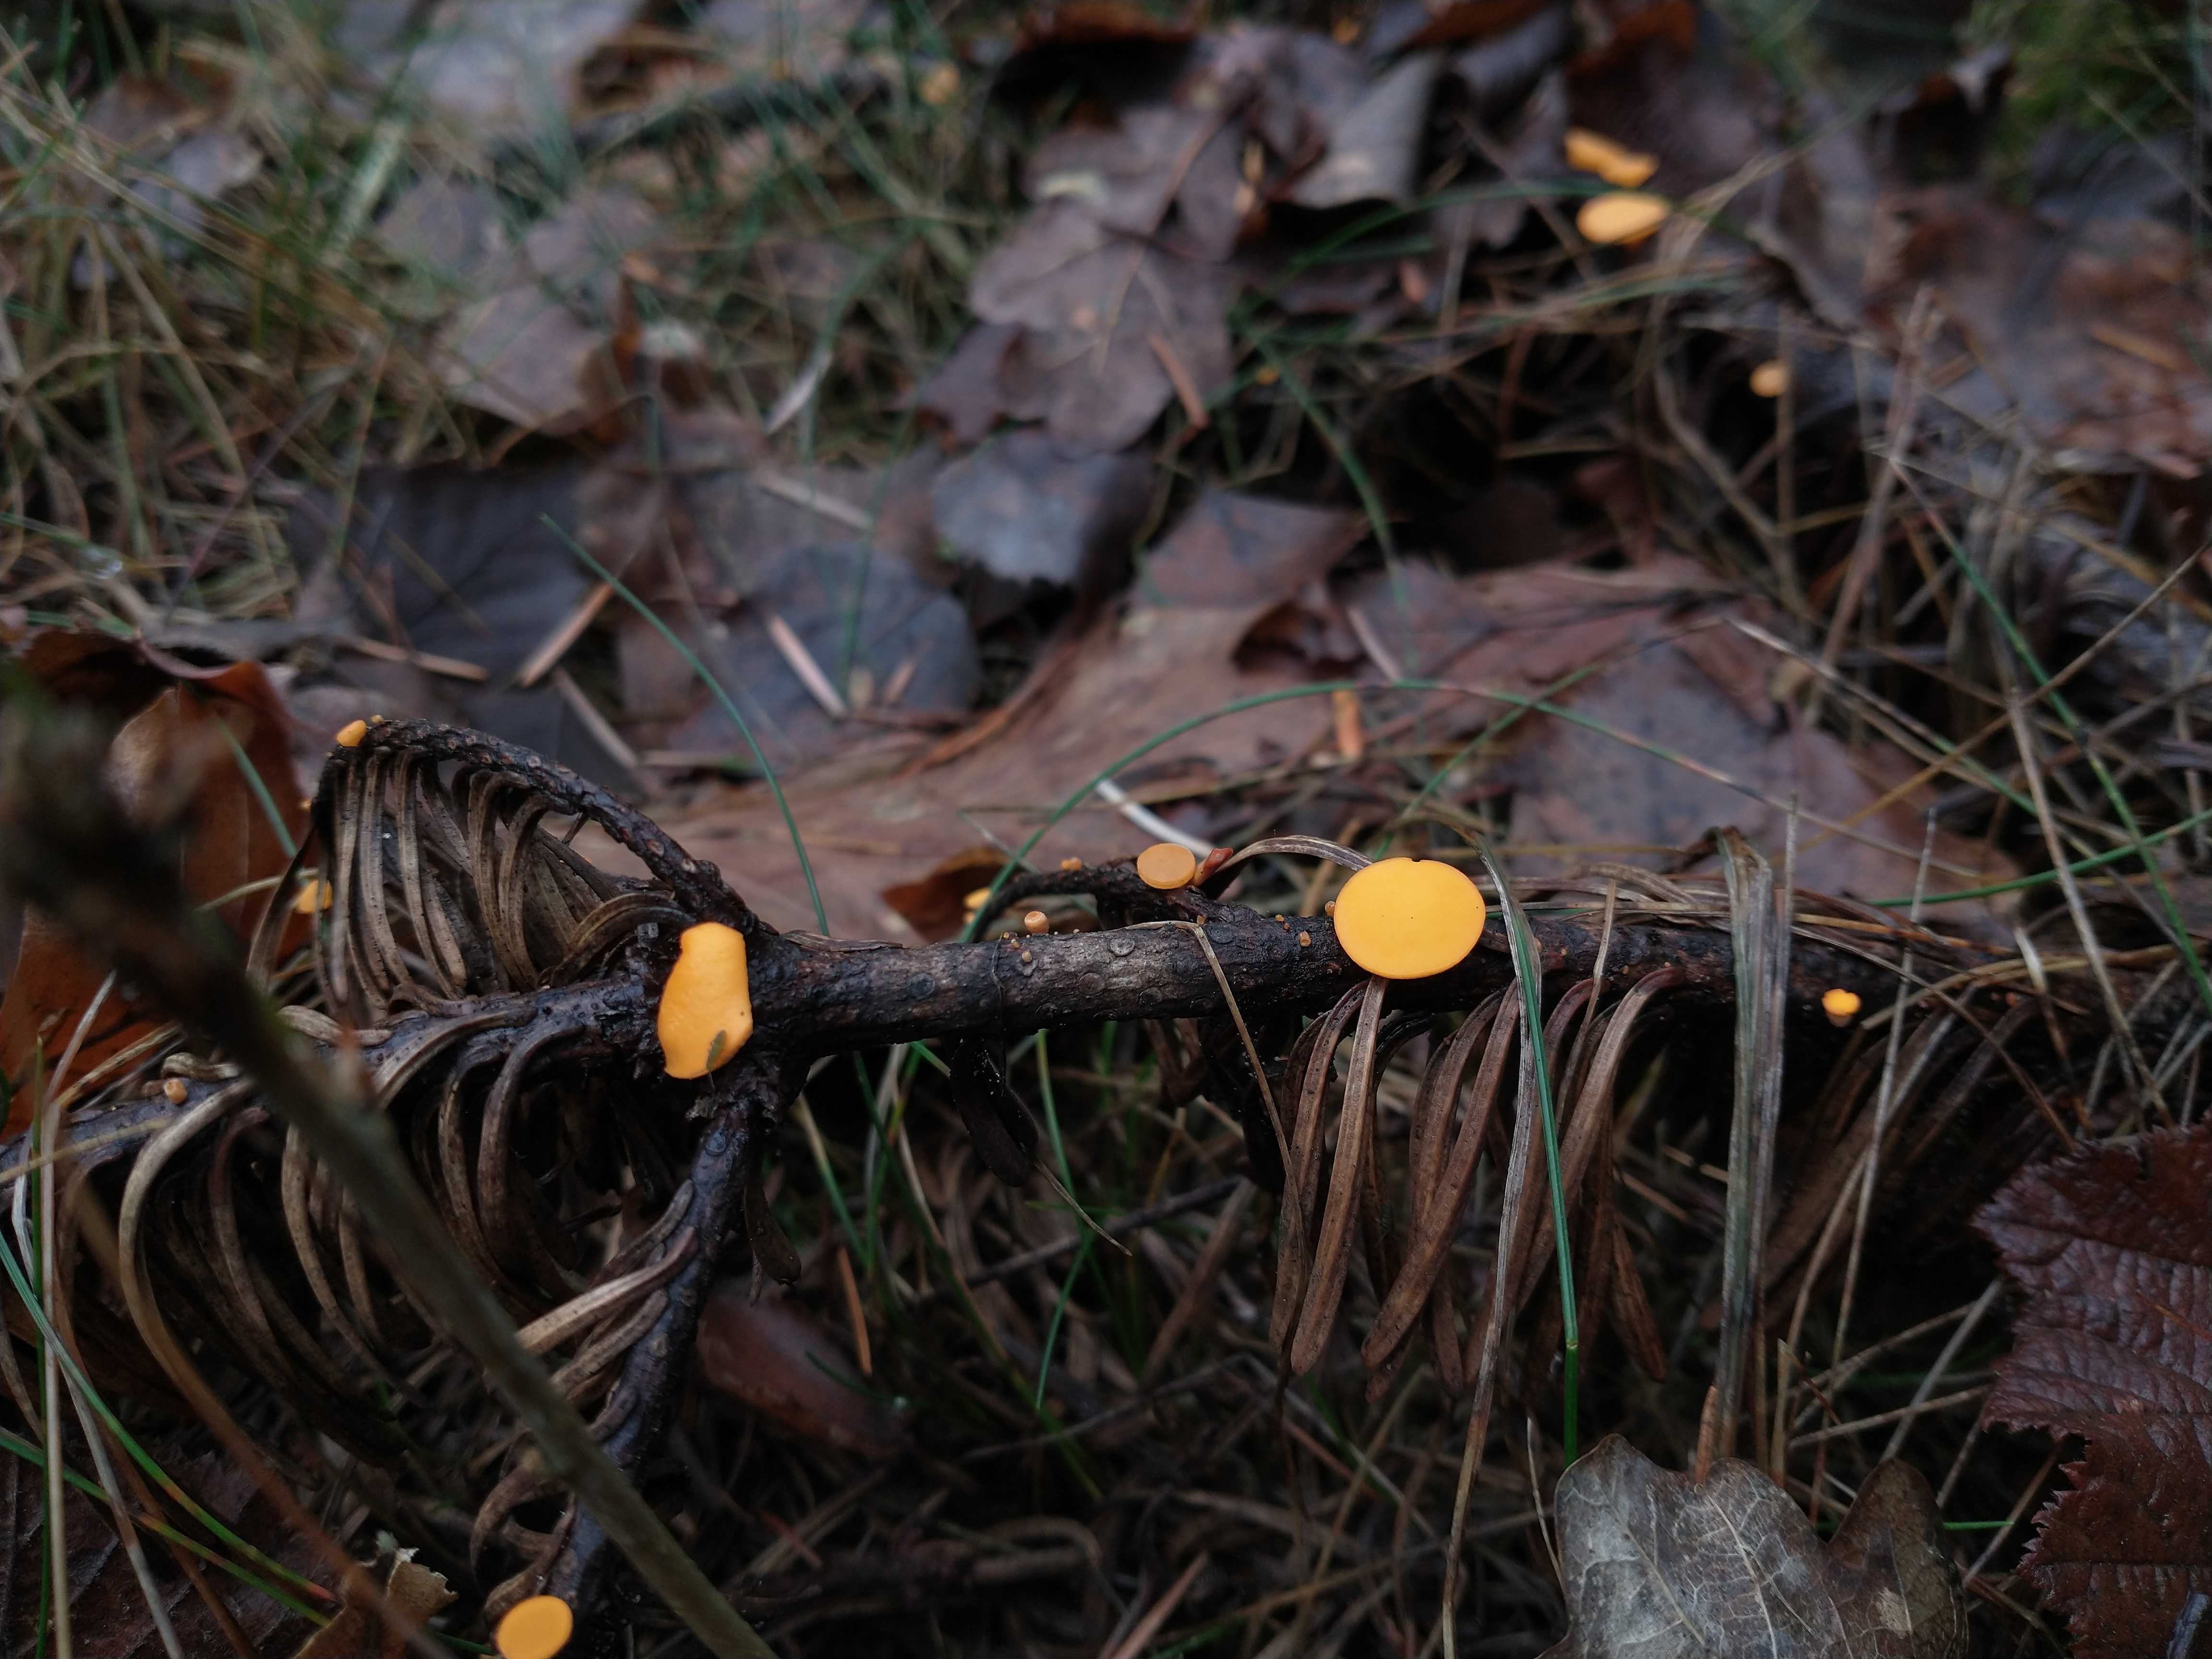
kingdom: Fungi
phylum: Ascomycota
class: Pezizomycetes
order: Pezizales
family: Sarcoscyphaceae
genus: Pithya
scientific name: Pithya vulgaris
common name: stor dukatbæger
